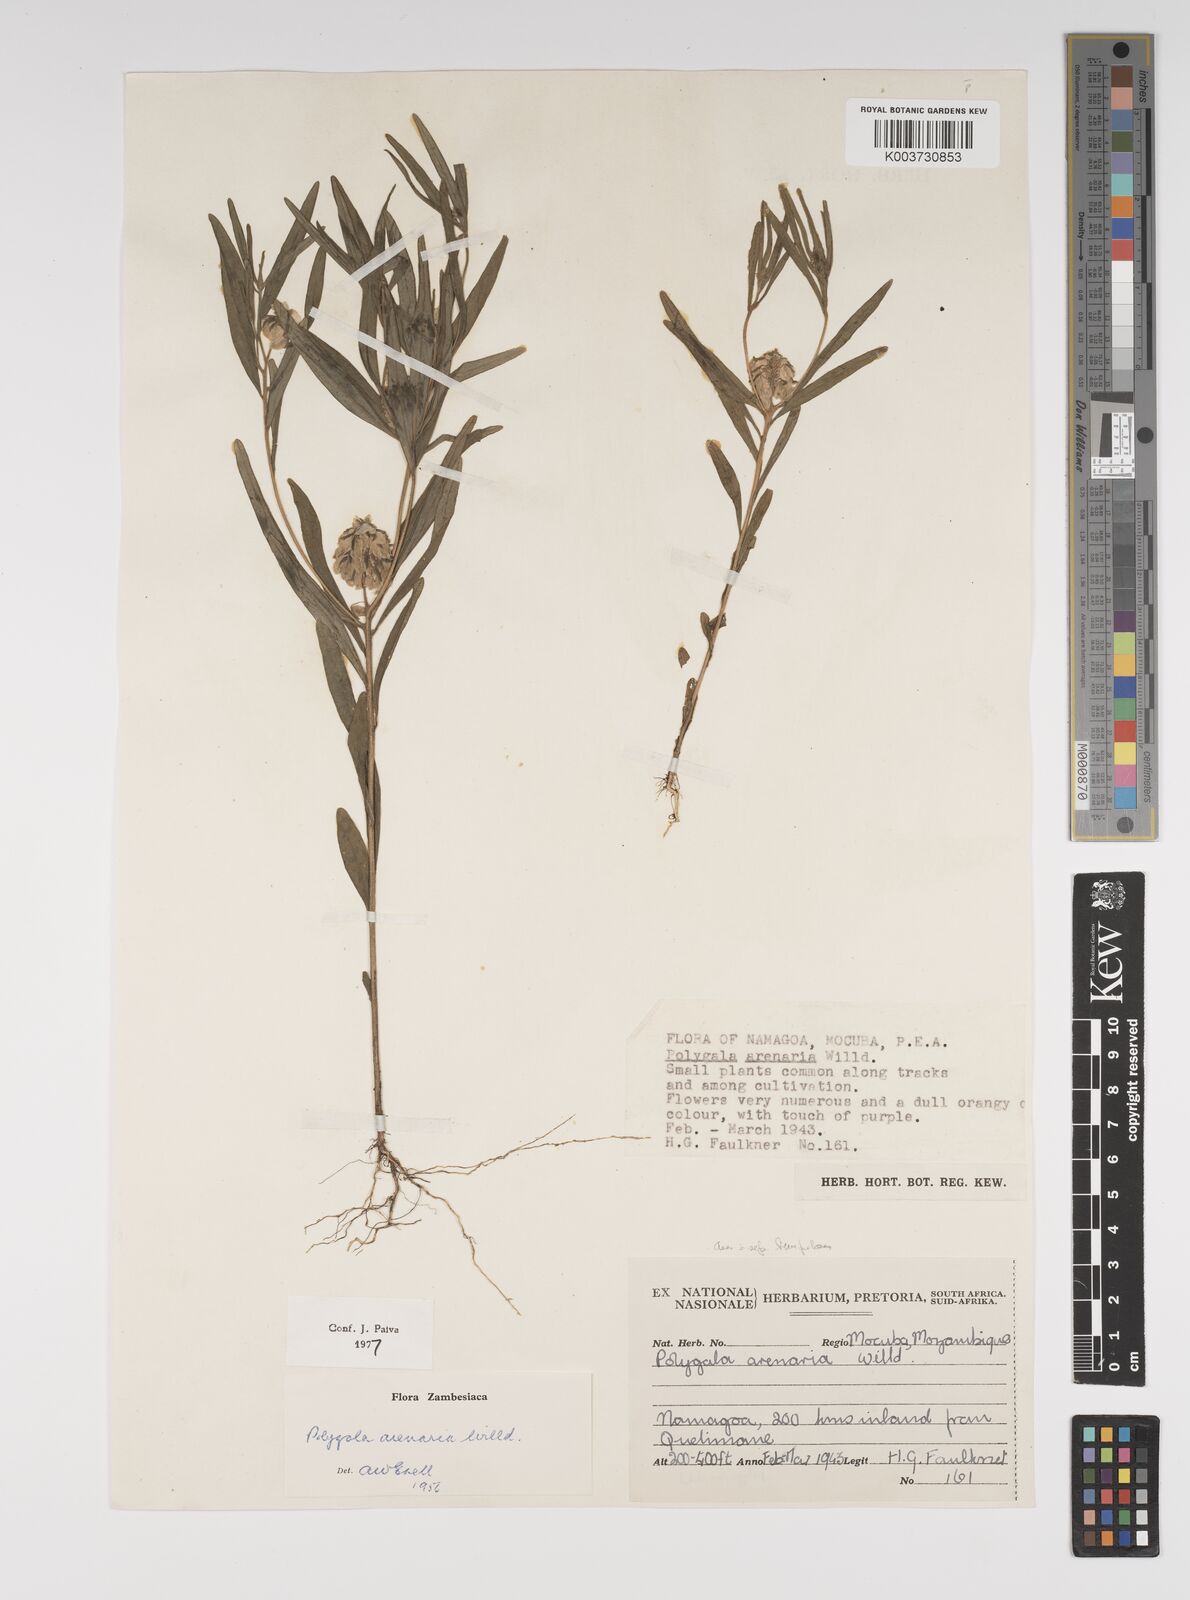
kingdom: Plantae
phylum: Tracheophyta
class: Magnoliopsida
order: Fabales
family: Polygalaceae
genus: Polygala
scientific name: Polygala arenaria
